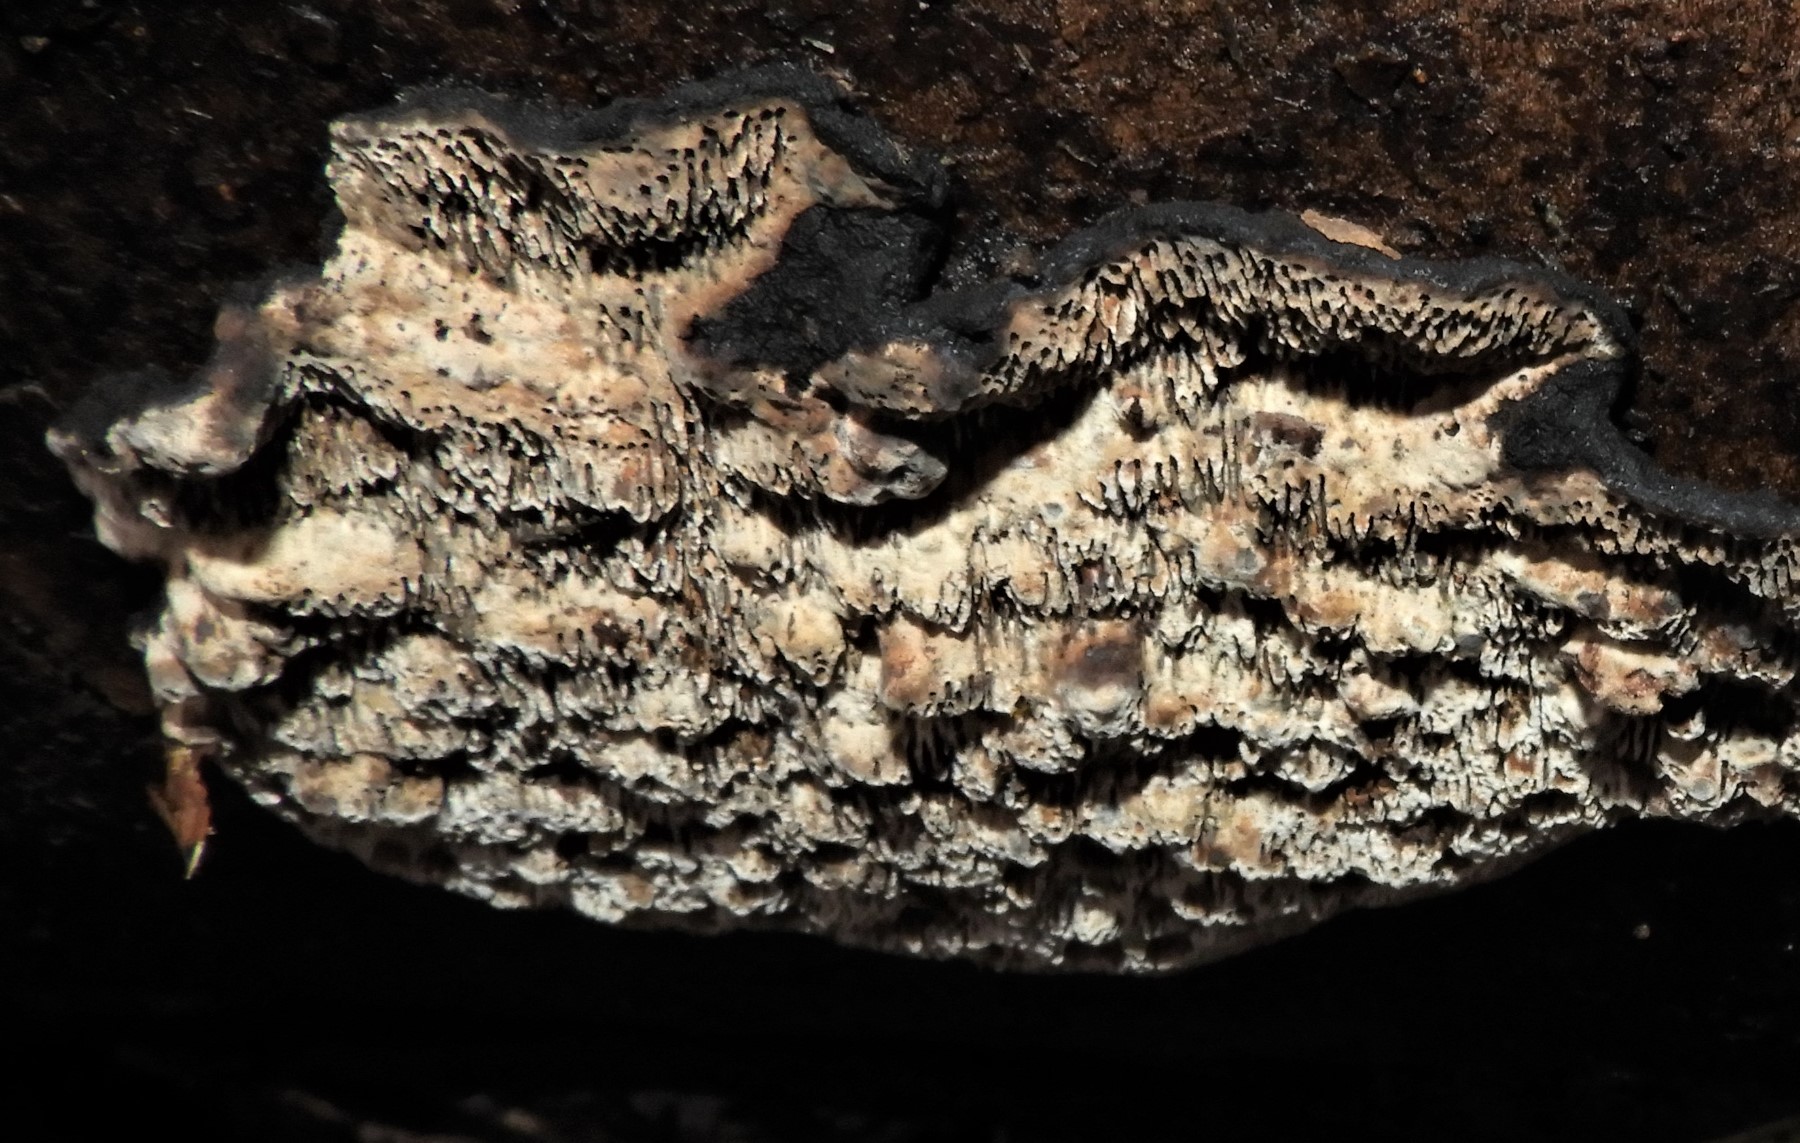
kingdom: Fungi
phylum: Basidiomycota
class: Agaricomycetes
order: Polyporales
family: Polyporaceae
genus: Podofomes
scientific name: Podofomes mollis
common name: blød begporesvamp
